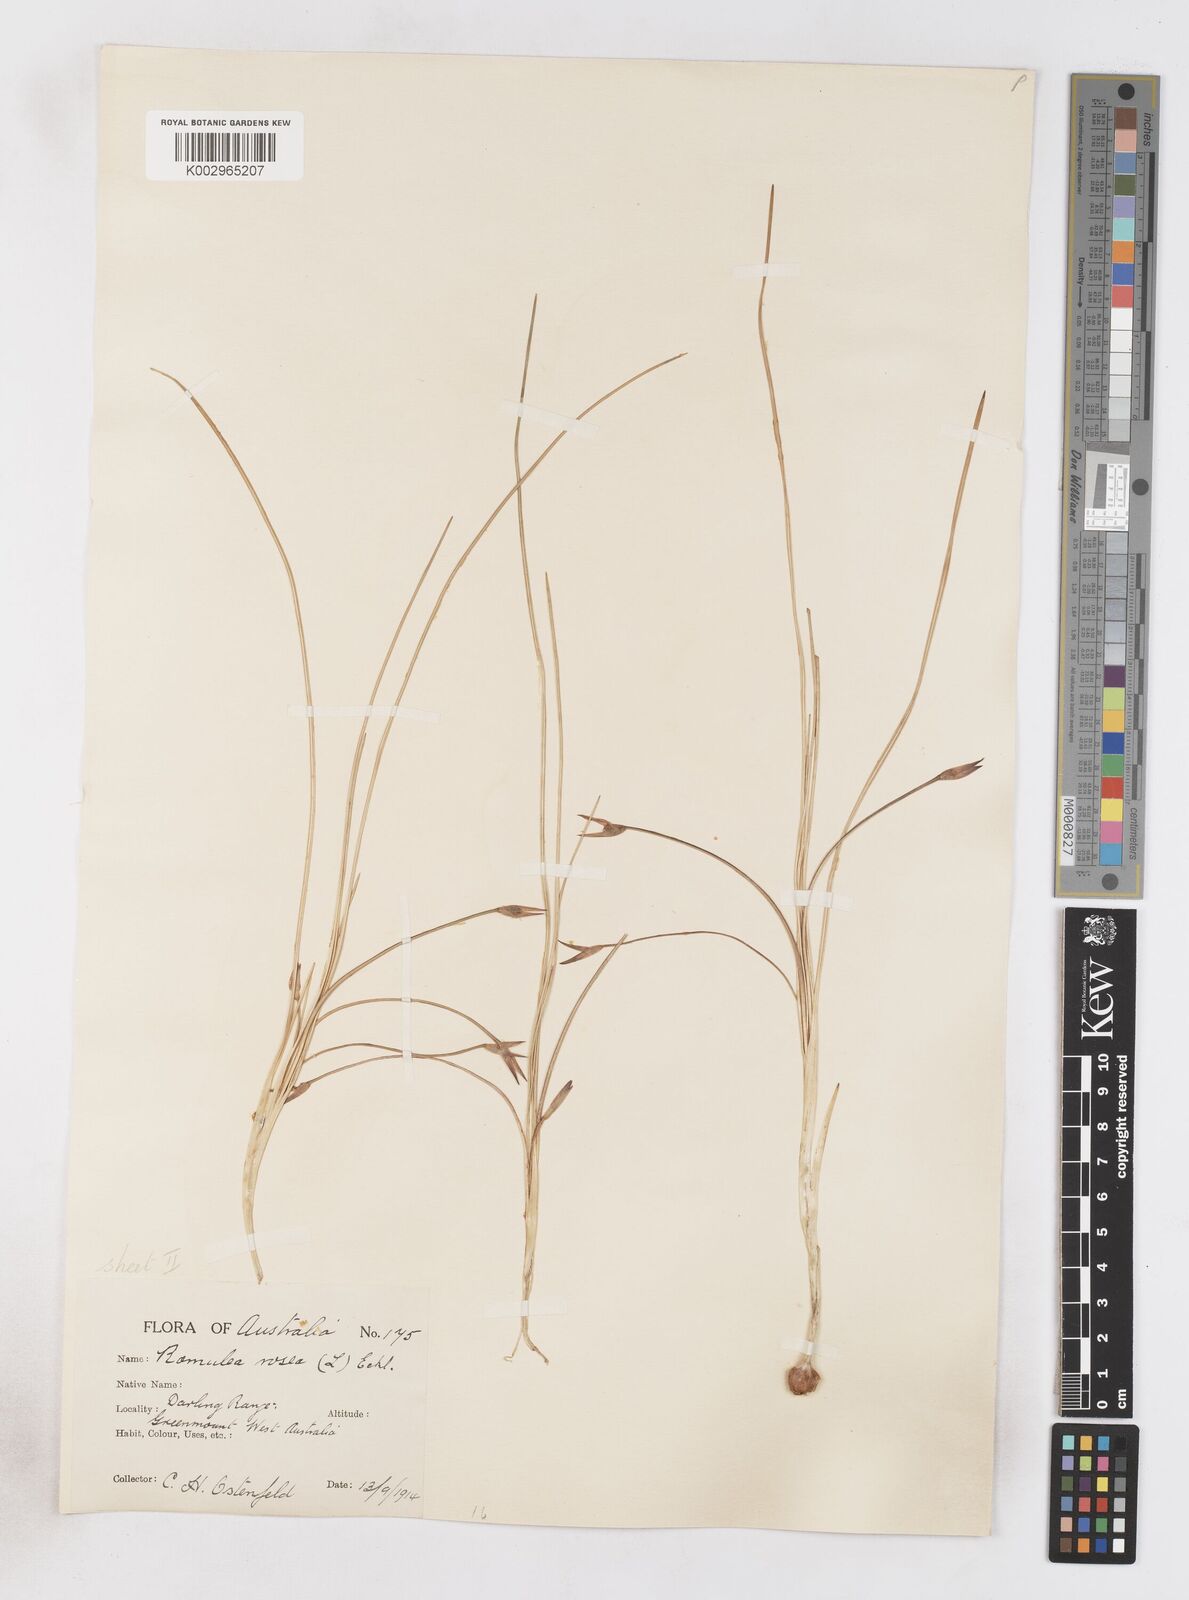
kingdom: Plantae
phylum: Tracheophyta
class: Liliopsida
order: Asparagales
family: Iridaceae
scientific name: Iridaceae
